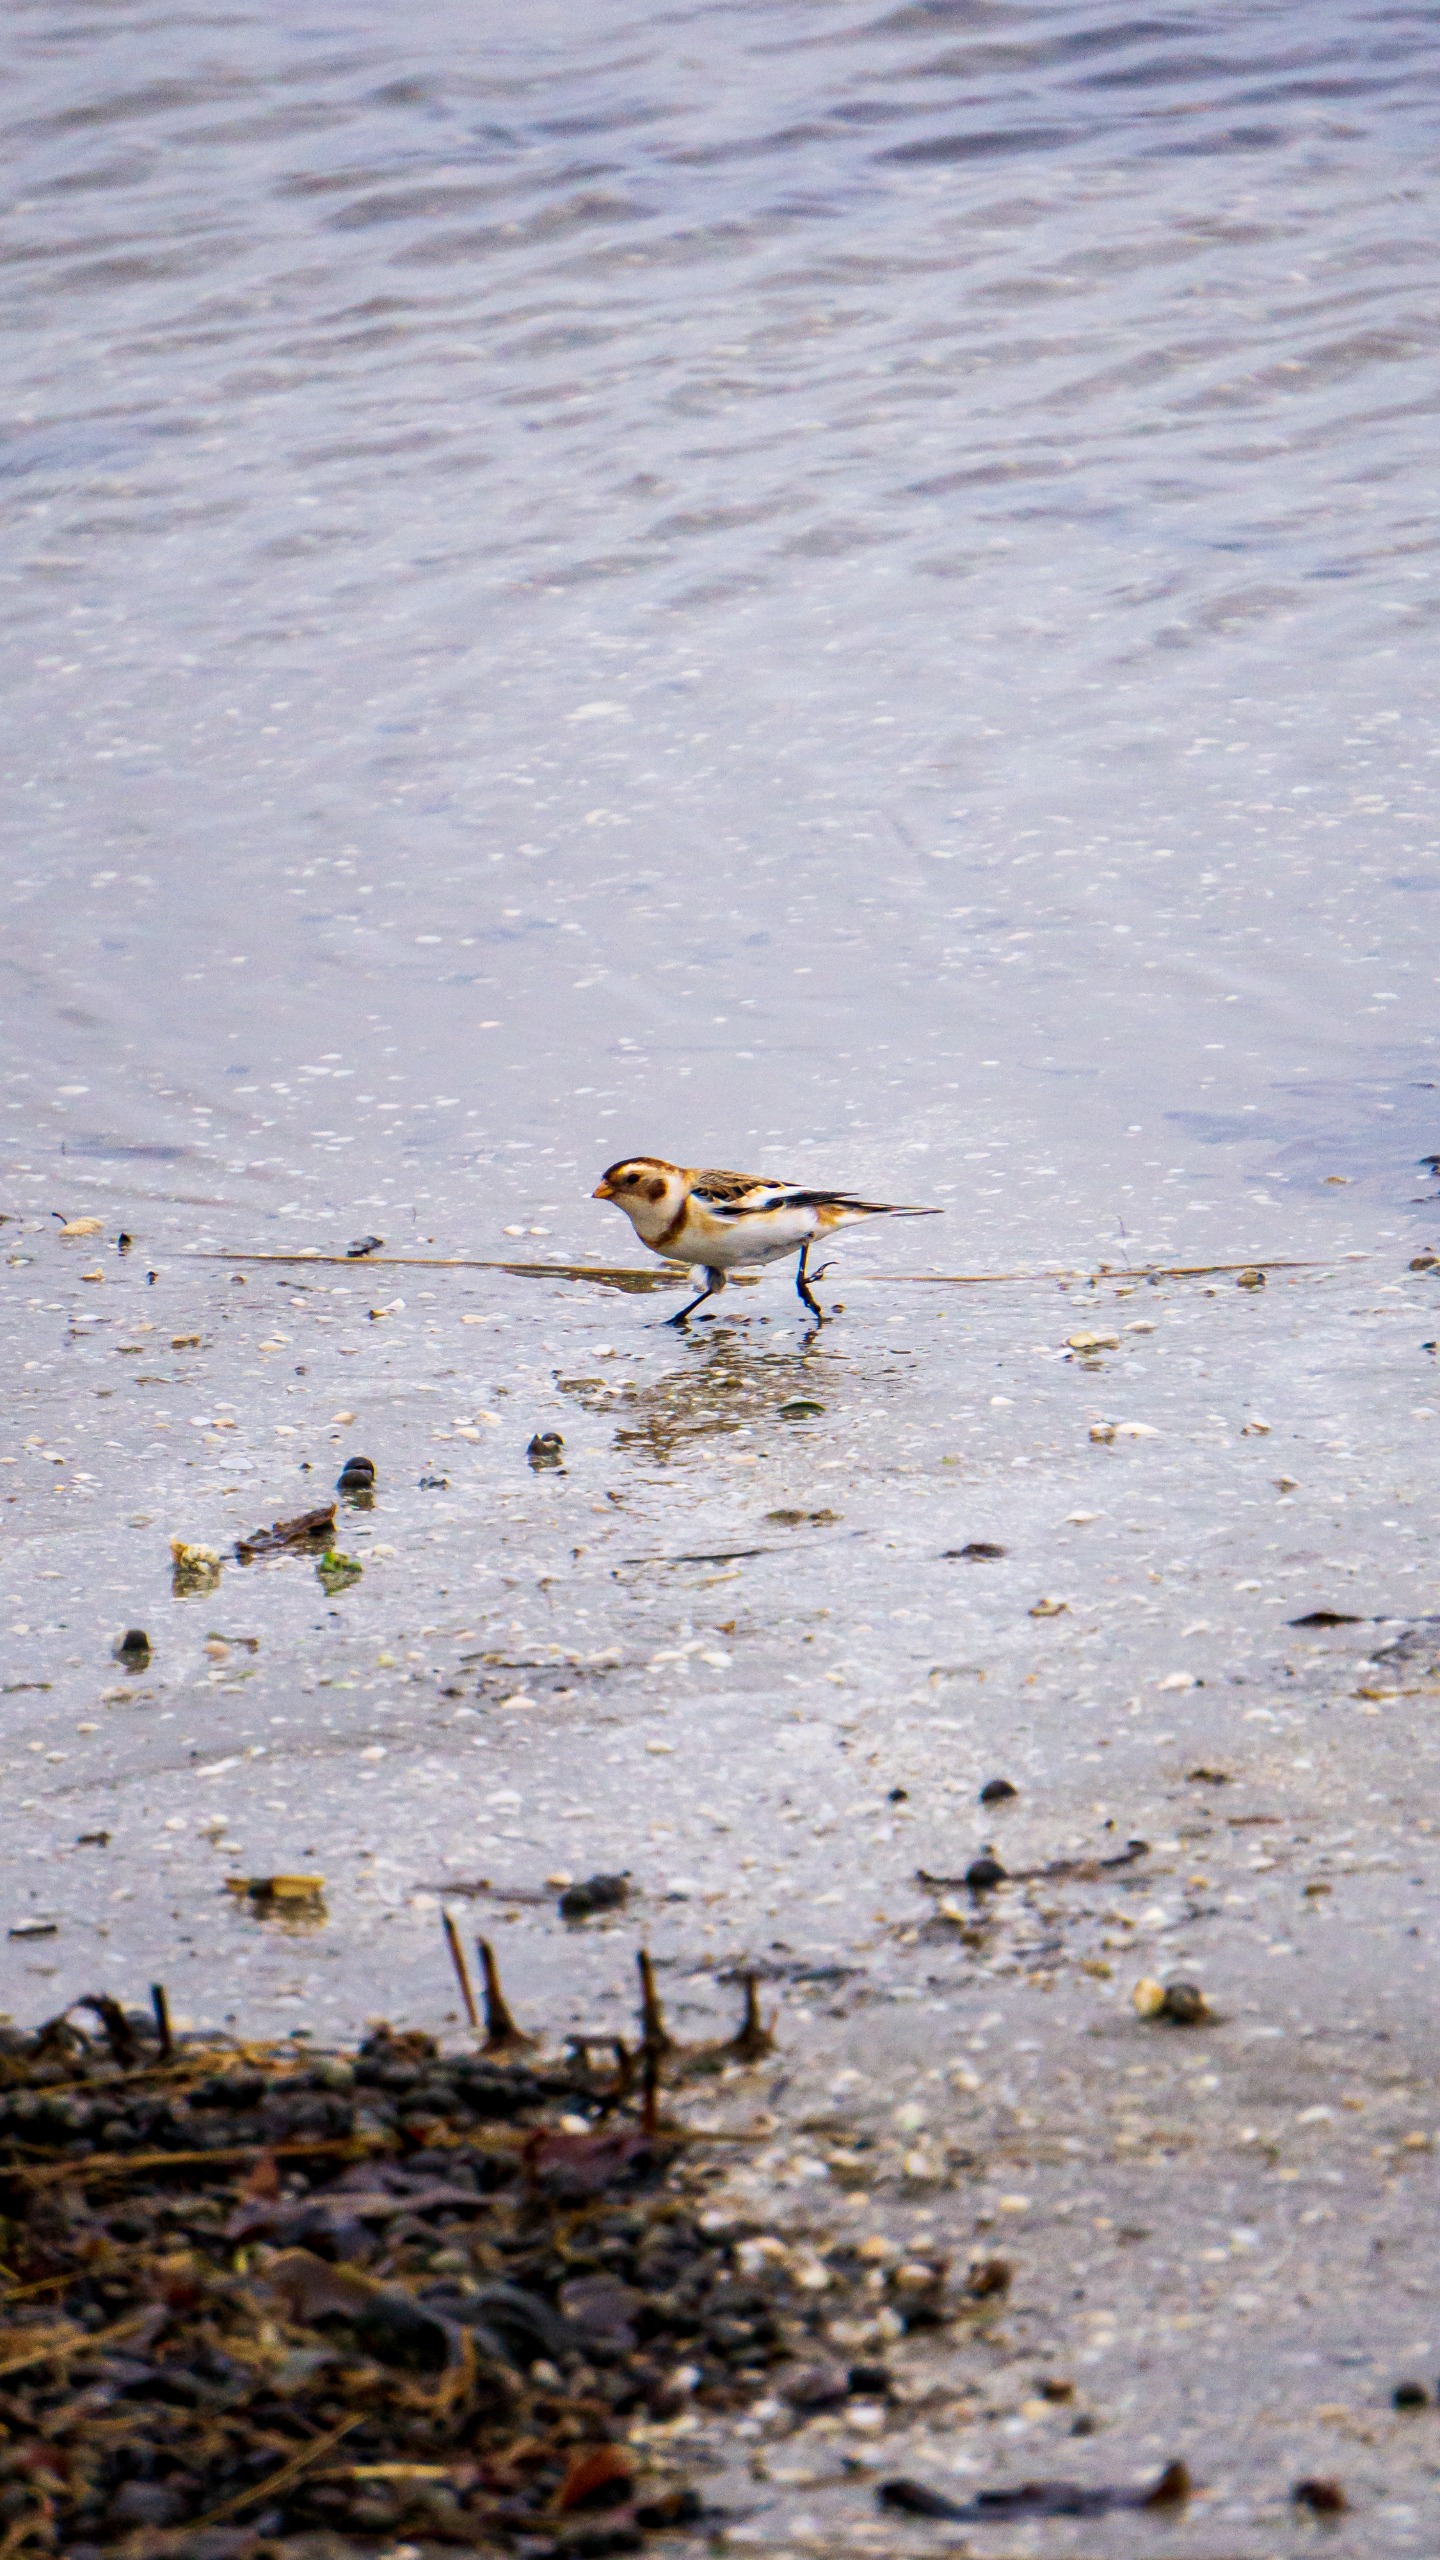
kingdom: Animalia
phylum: Chordata
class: Aves
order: Passeriformes
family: Calcariidae
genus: Plectrophenax
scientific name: Plectrophenax nivalis
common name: Snespurv
